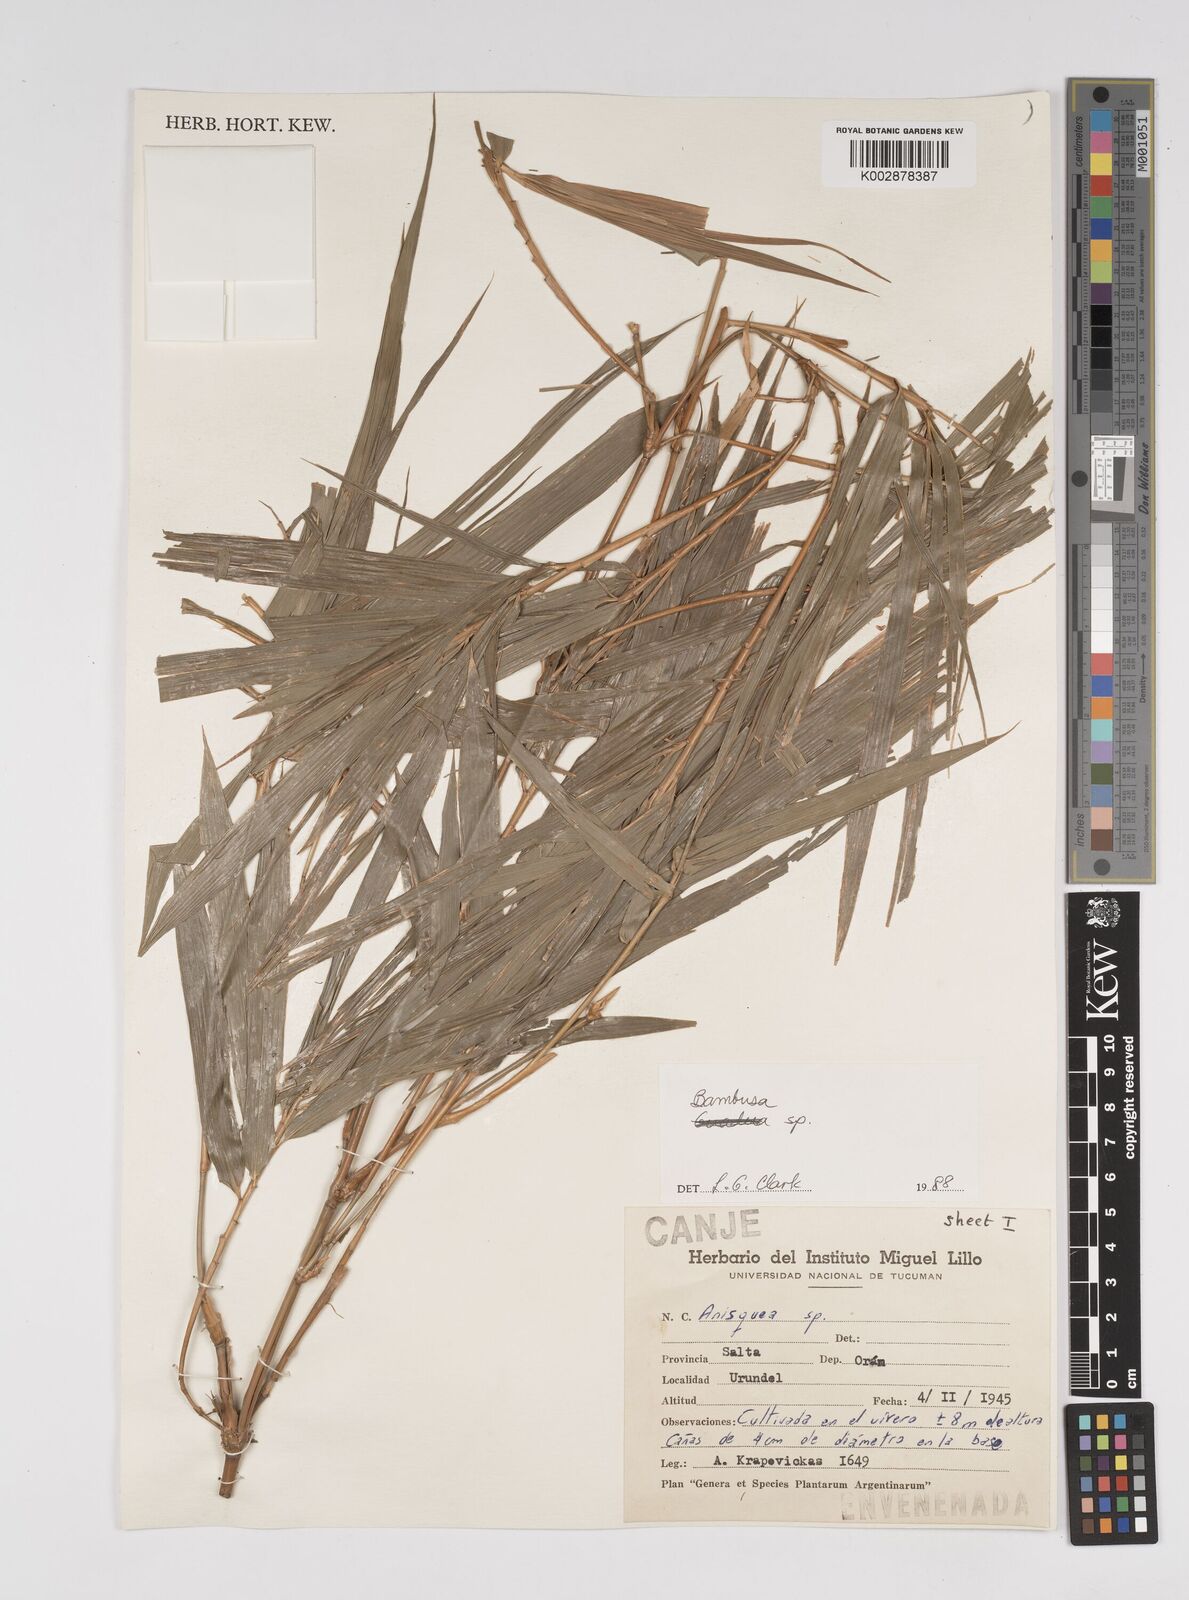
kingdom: Plantae
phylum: Tracheophyta
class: Liliopsida
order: Poales
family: Poaceae
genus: Bambusa
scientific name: Bambusa
